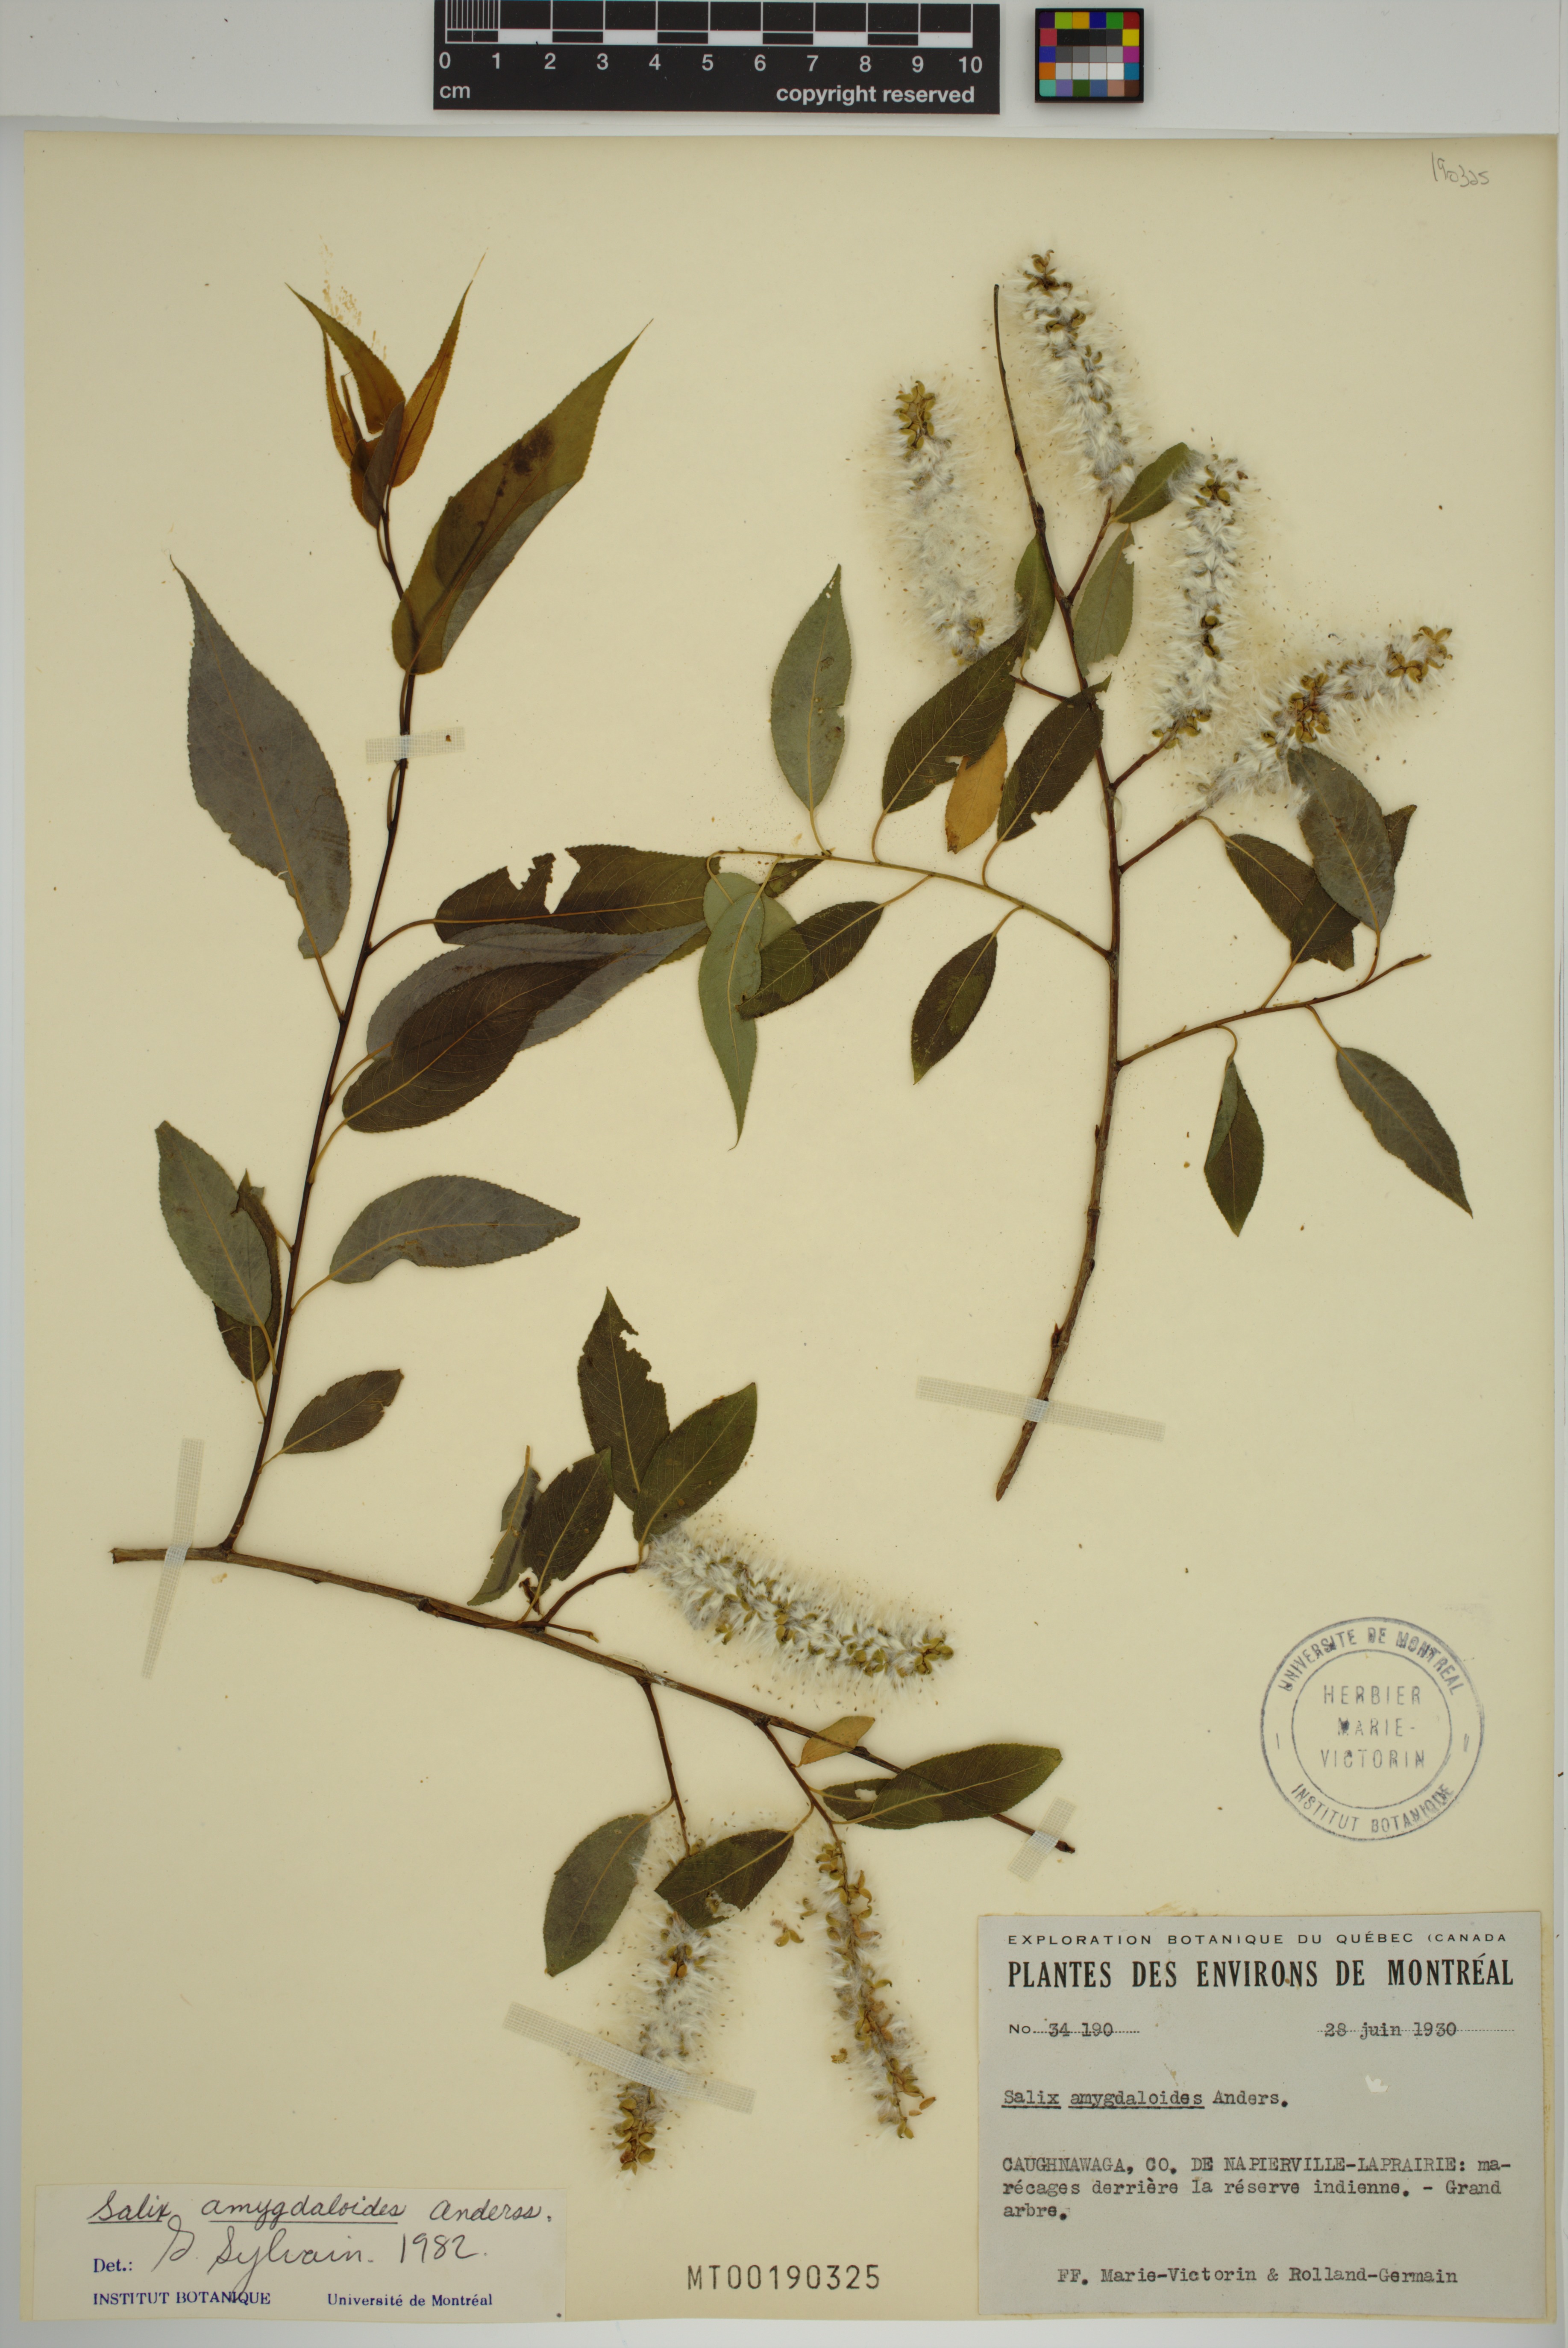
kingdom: Plantae
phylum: Tracheophyta
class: Magnoliopsida
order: Malpighiales
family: Salicaceae
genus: Salix
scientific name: Salix amygdaloides
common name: Peach leaf willow
